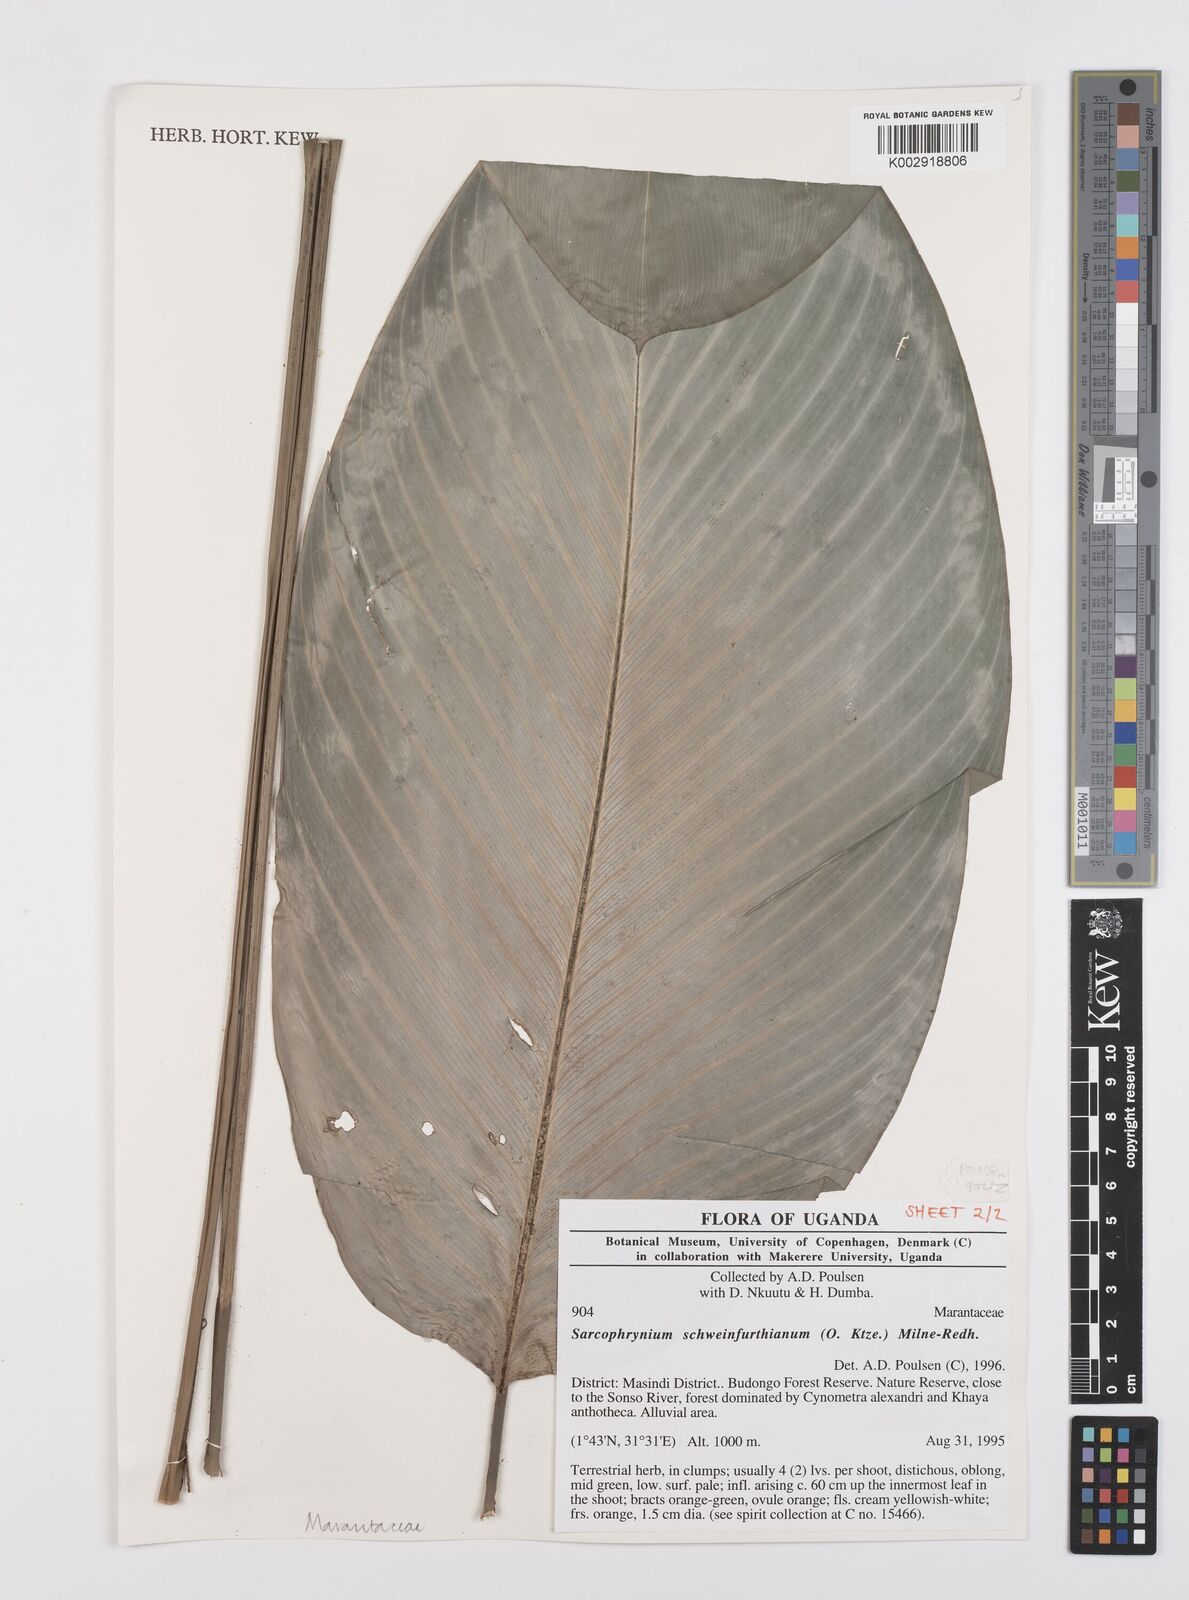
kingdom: Plantae
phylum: Tracheophyta
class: Liliopsida
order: Zingiberales
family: Marantaceae
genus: Sarcophrynium
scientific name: Sarcophrynium schweinfurthianum
